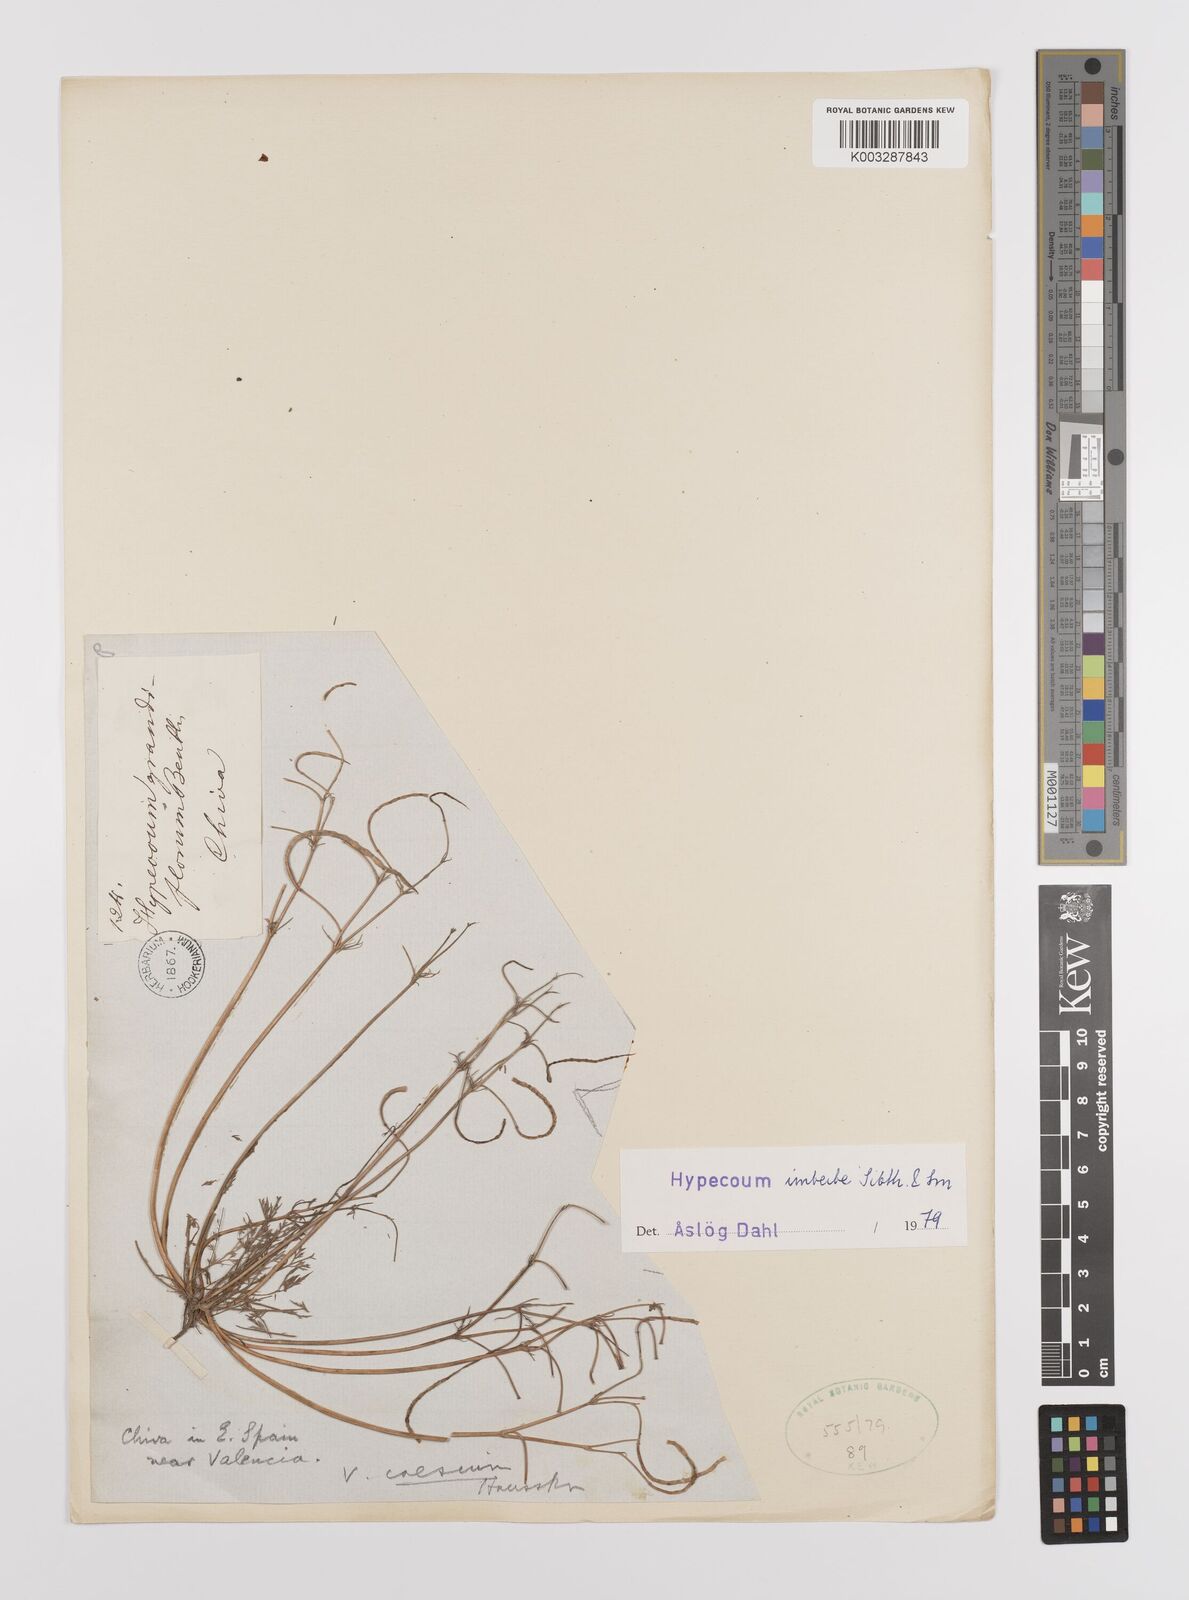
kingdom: Plantae
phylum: Tracheophyta
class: Magnoliopsida
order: Ranunculales
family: Papaveraceae
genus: Hypecoum
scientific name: Hypecoum imberbe
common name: Sicklefruit hypecoum
